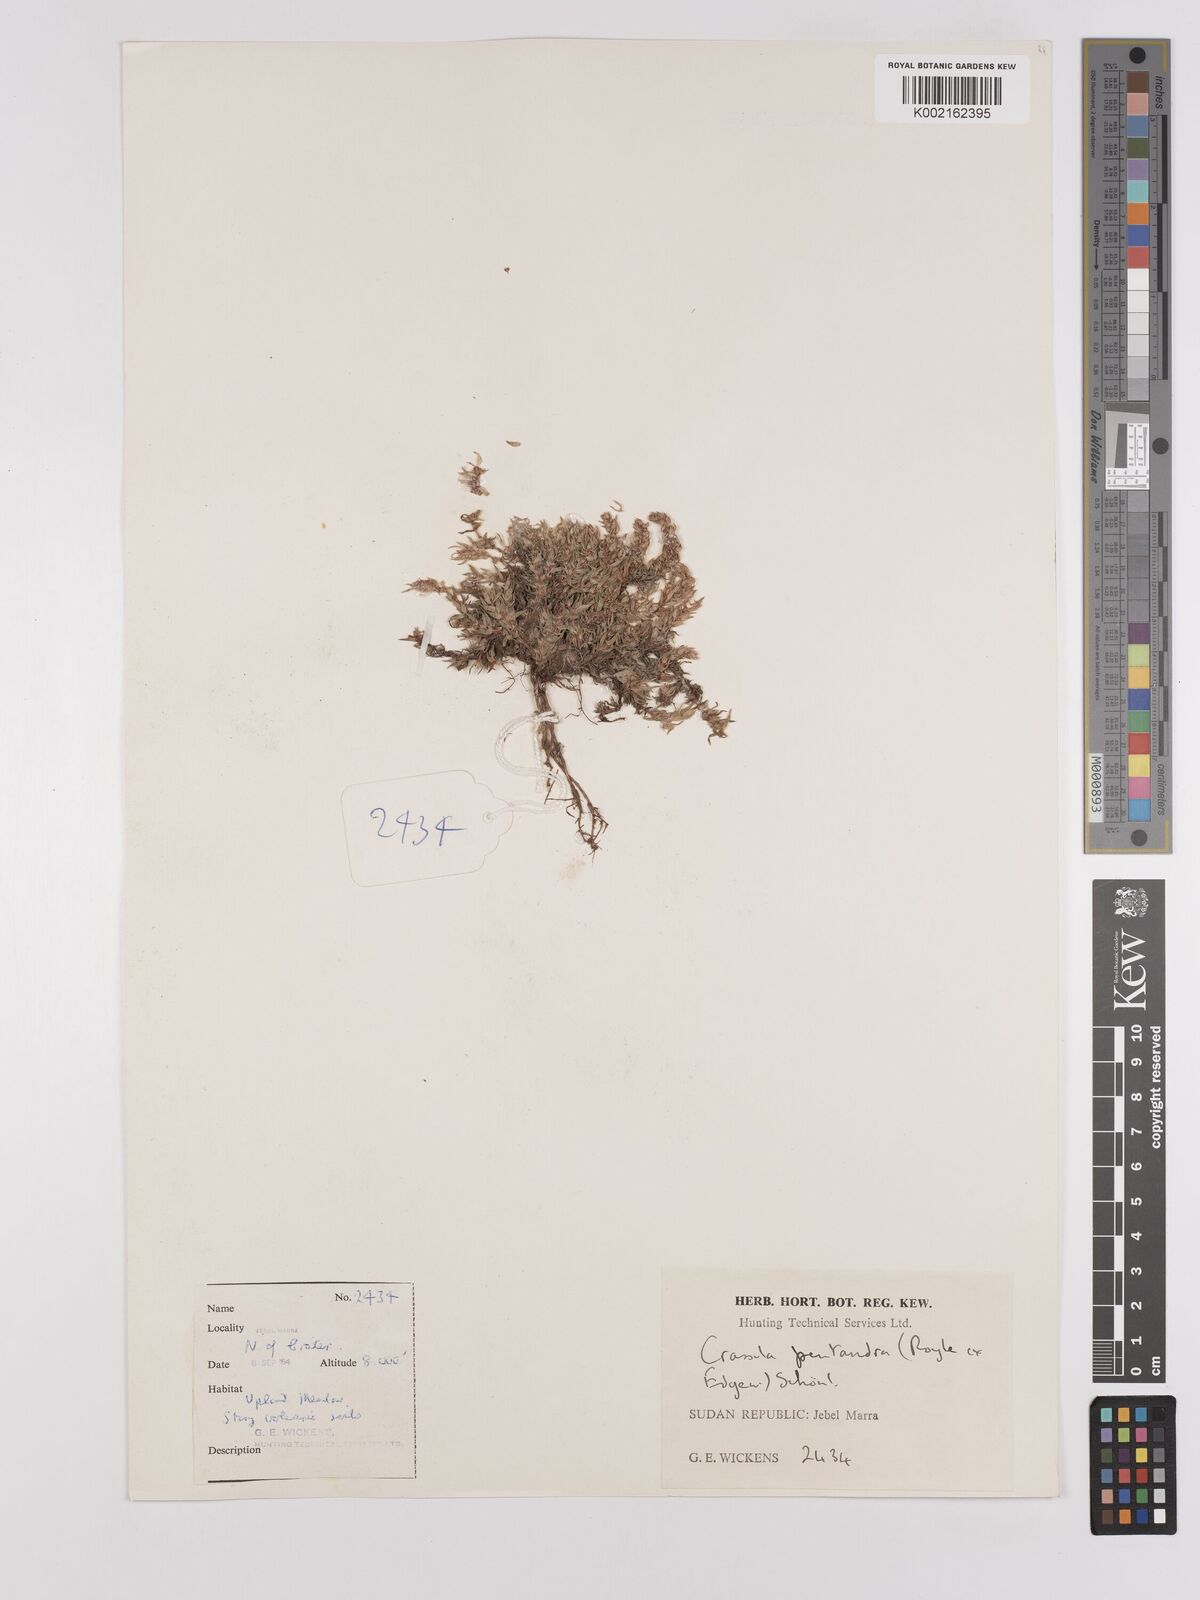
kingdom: Plantae
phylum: Tracheophyta
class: Magnoliopsida
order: Saxifragales
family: Crassulaceae
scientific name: Crassulaceae
